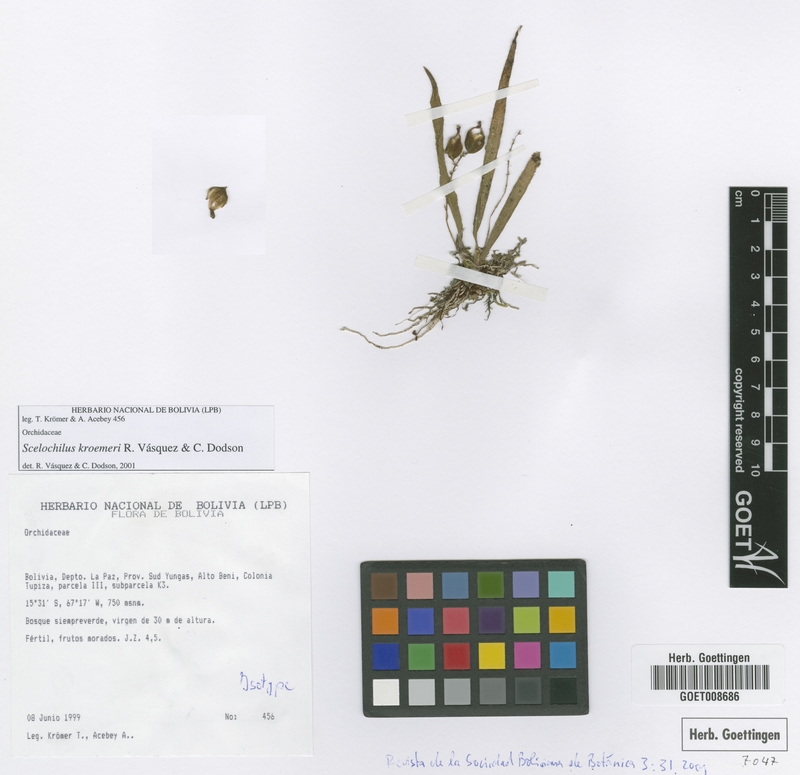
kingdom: Plantae
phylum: Tracheophyta
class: Liliopsida
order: Asparagales
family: Orchidaceae
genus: Comparettia
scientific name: Comparettia kroemeri
